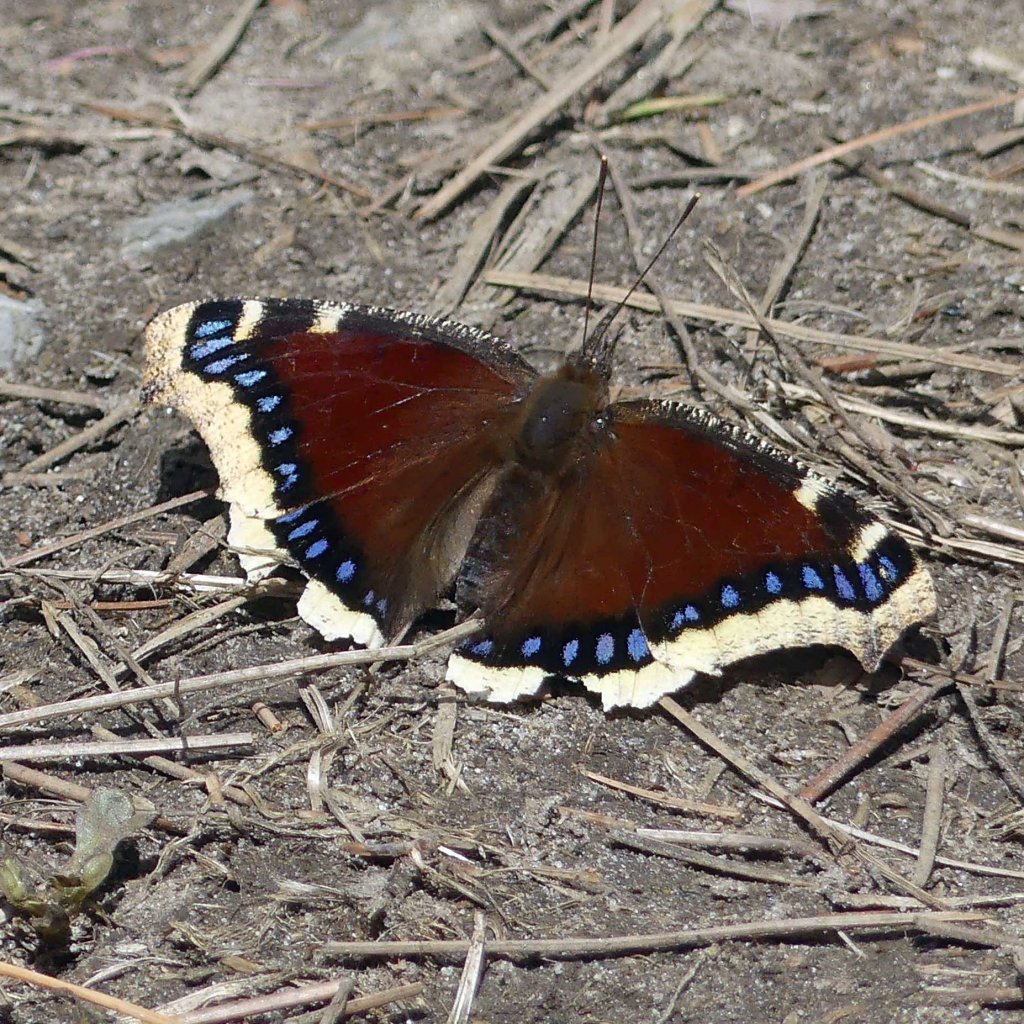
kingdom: Animalia
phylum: Arthropoda
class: Insecta
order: Lepidoptera
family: Nymphalidae
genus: Nymphalis
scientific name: Nymphalis antiopa
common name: Mourning Cloak
